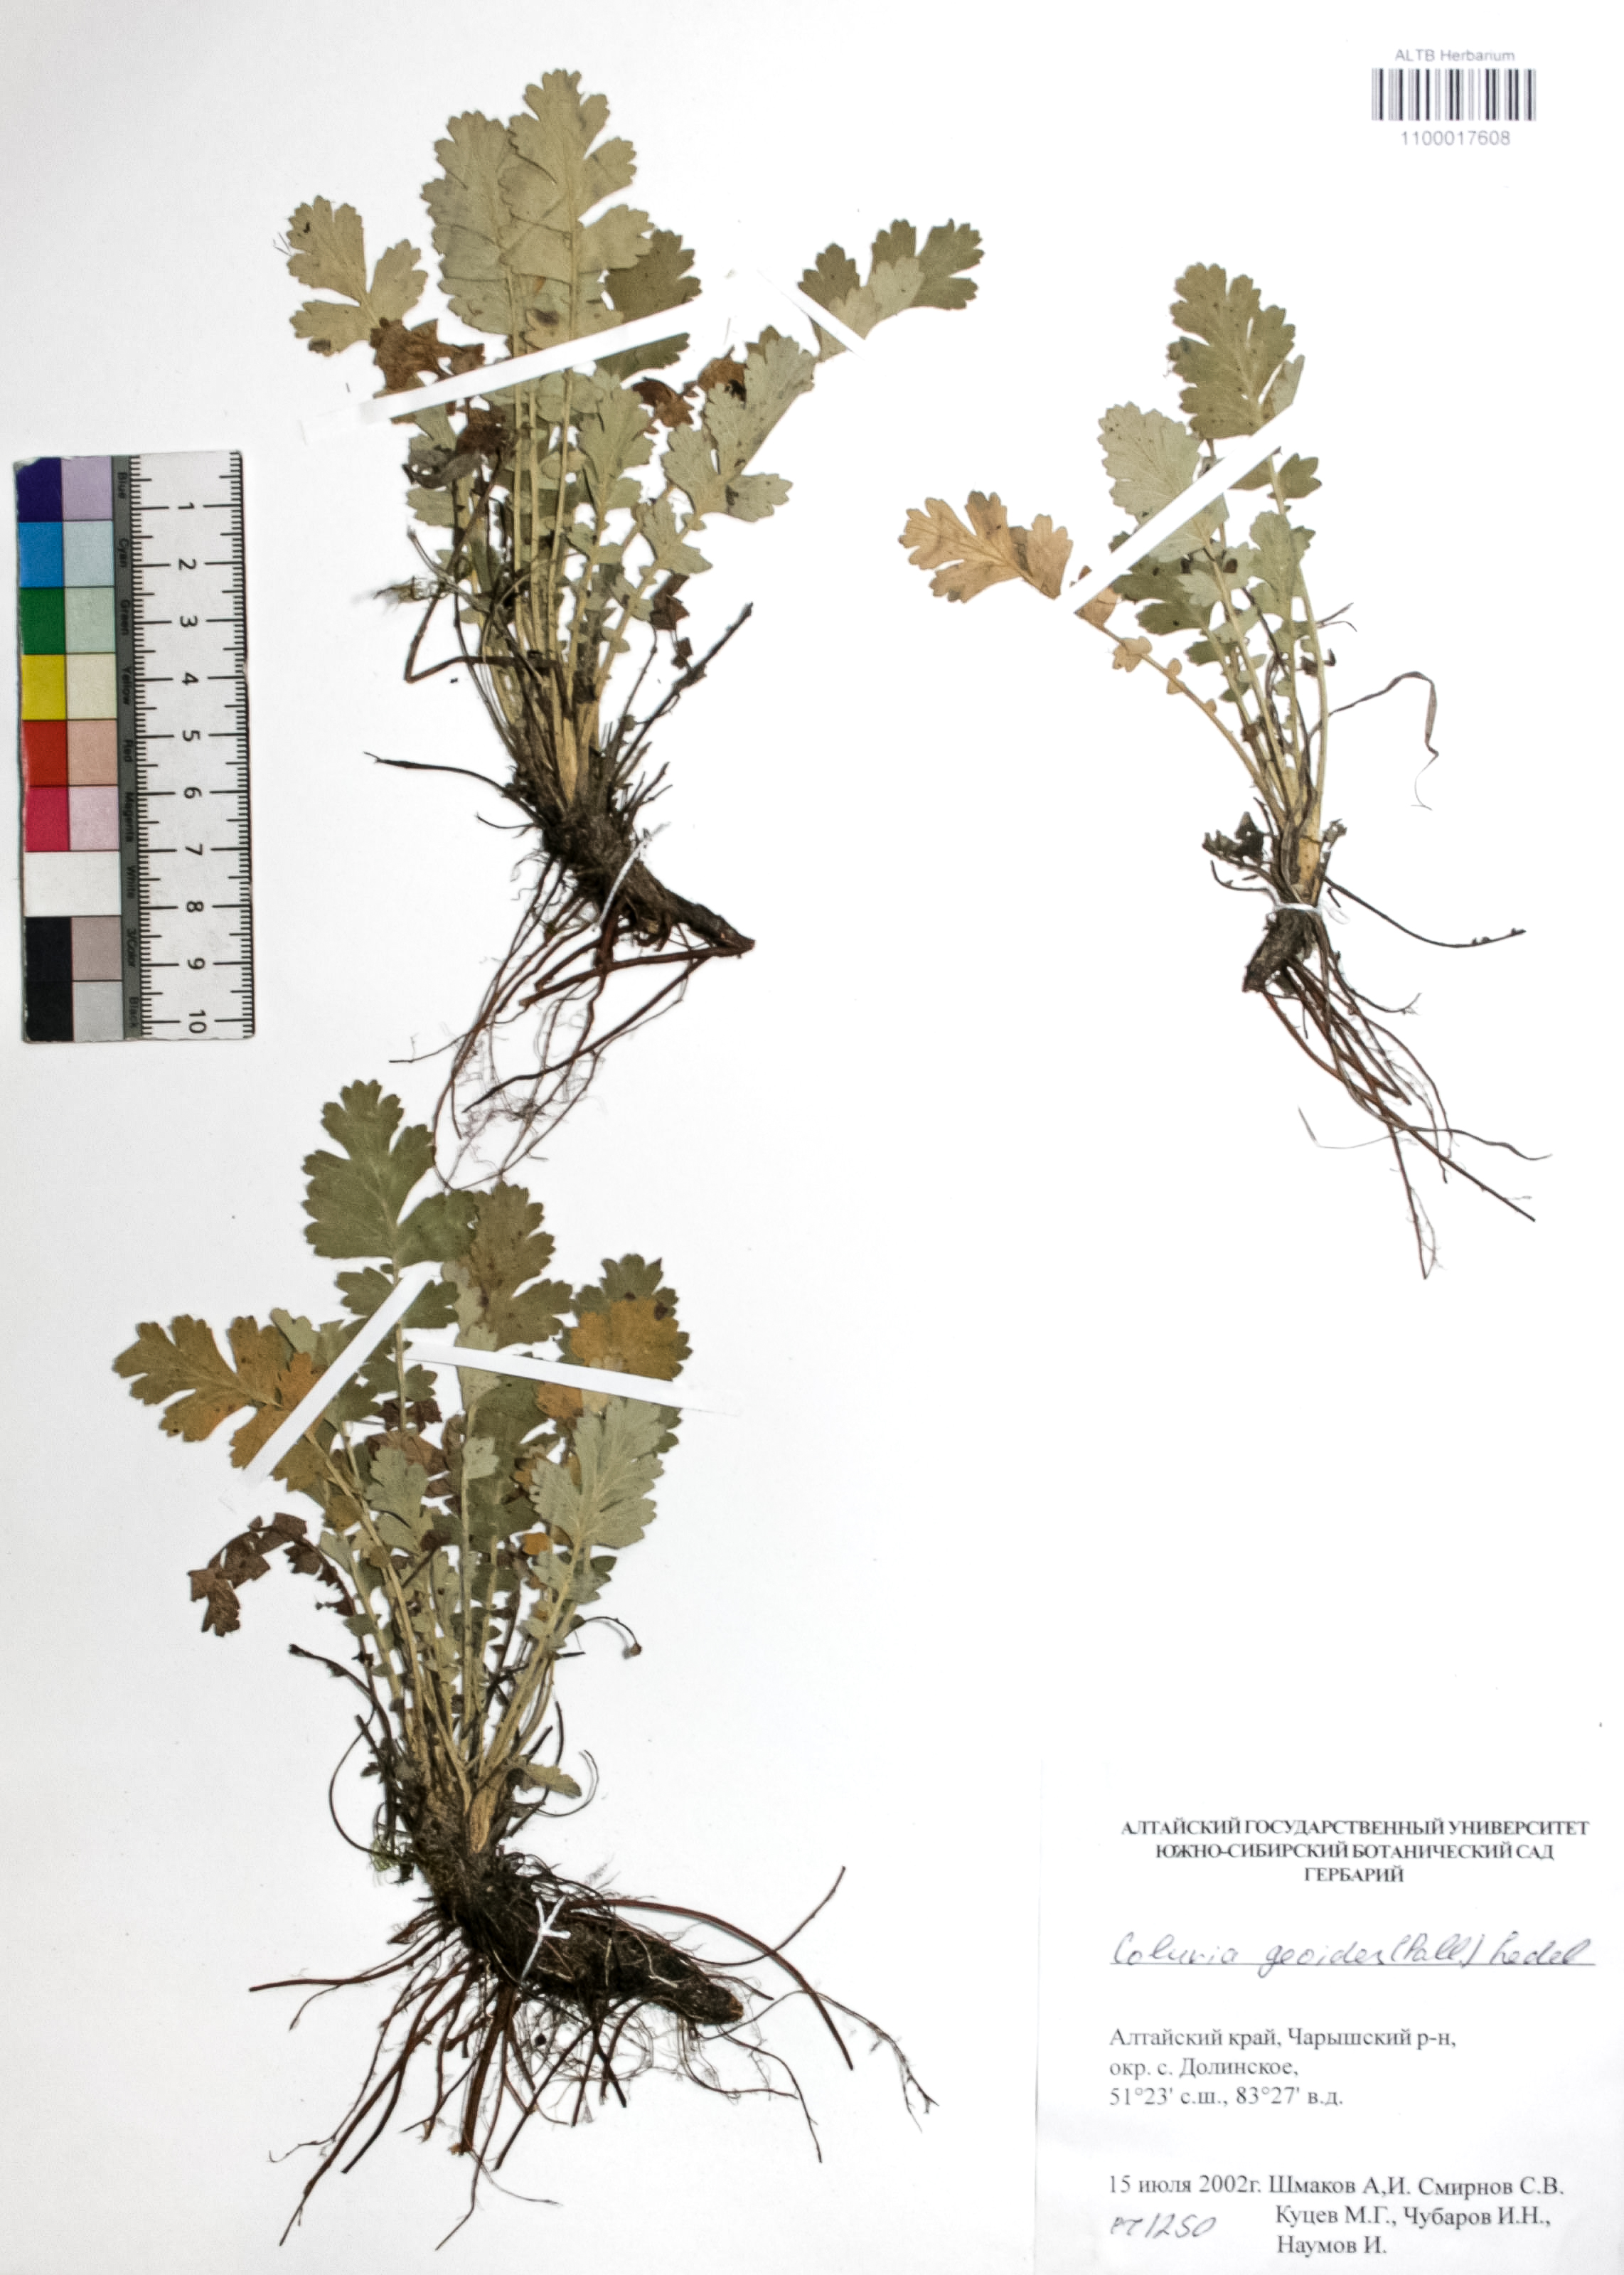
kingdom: Plantae
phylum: Tracheophyta
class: Magnoliopsida
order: Rosales
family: Rosaceae
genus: Geum
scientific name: Geum geoides
